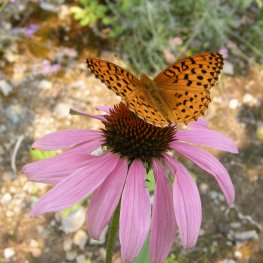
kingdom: Animalia
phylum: Arthropoda
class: Insecta
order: Lepidoptera
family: Nymphalidae
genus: Speyeria
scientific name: Speyeria cybele
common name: Great Spangled Fritillary
